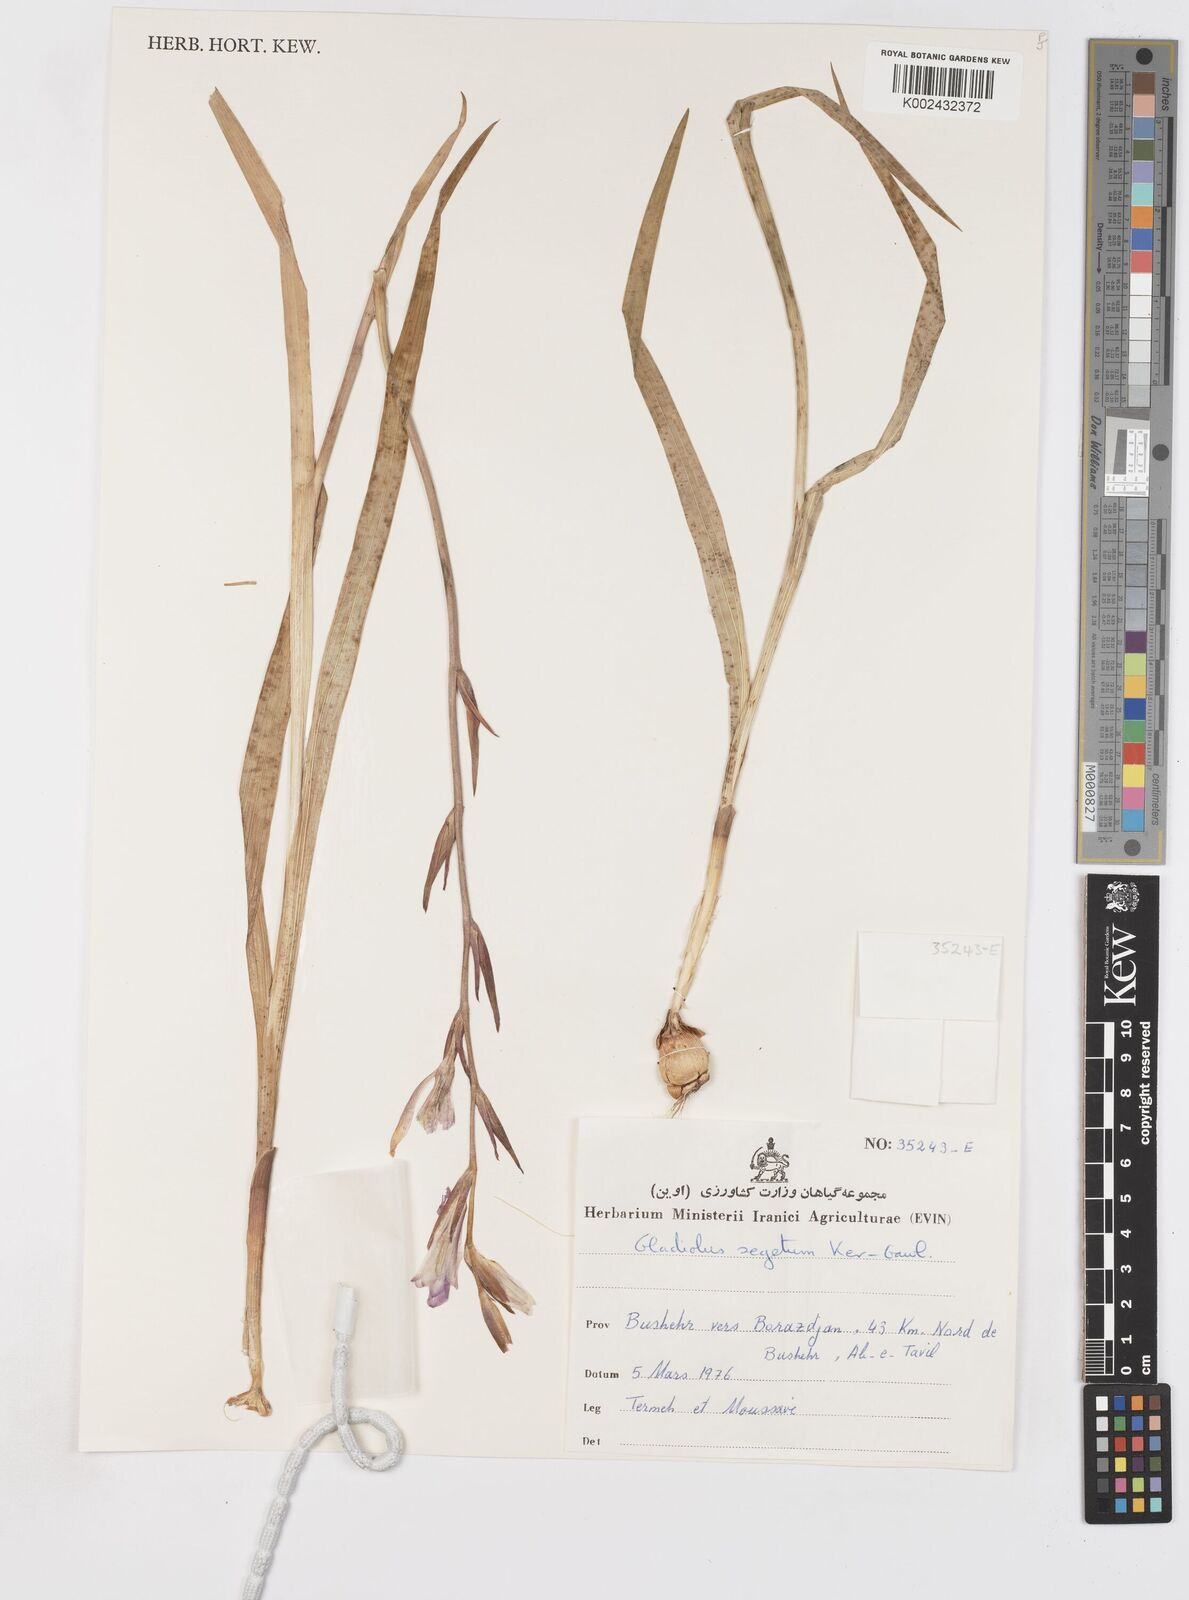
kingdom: Plantae
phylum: Tracheophyta
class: Liliopsida
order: Asparagales
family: Iridaceae
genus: Gladiolus
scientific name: Gladiolus italicus
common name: Field gladiolus
